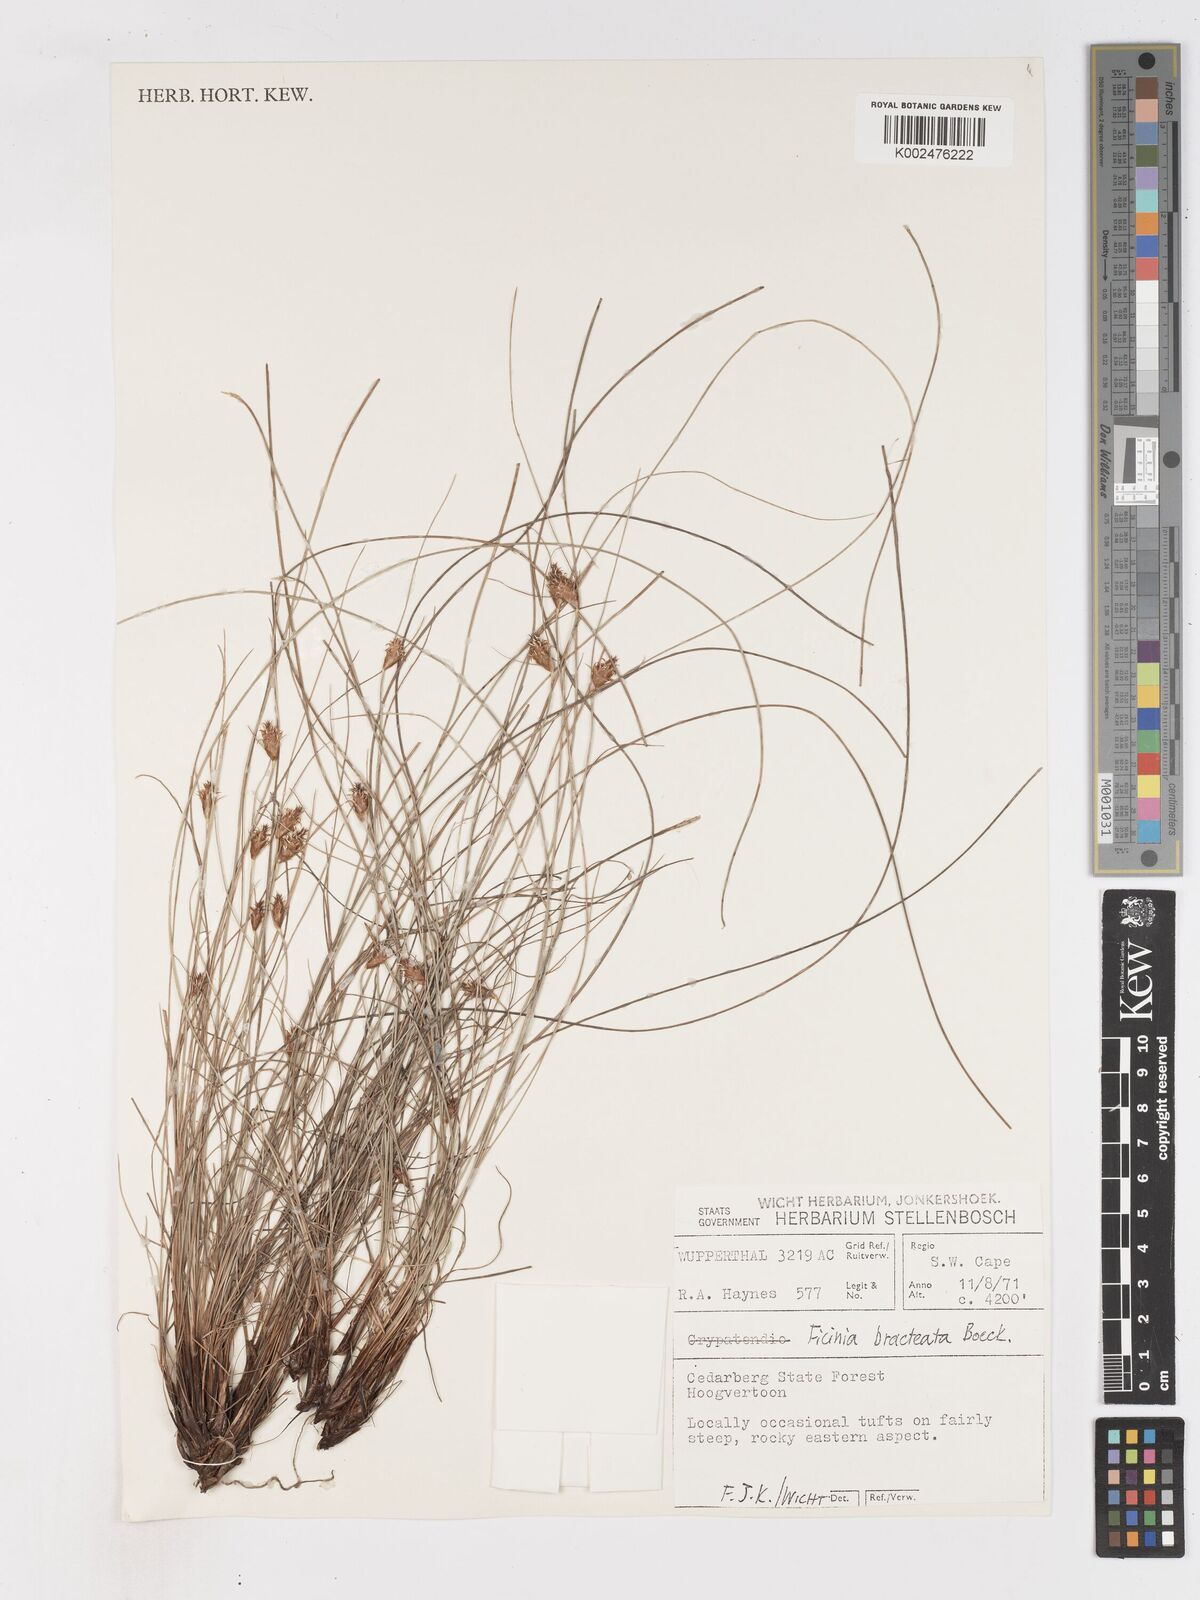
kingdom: Plantae
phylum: Tracheophyta
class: Liliopsida
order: Poales
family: Cyperaceae
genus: Ficinia
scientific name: Ficinia nigrescens
